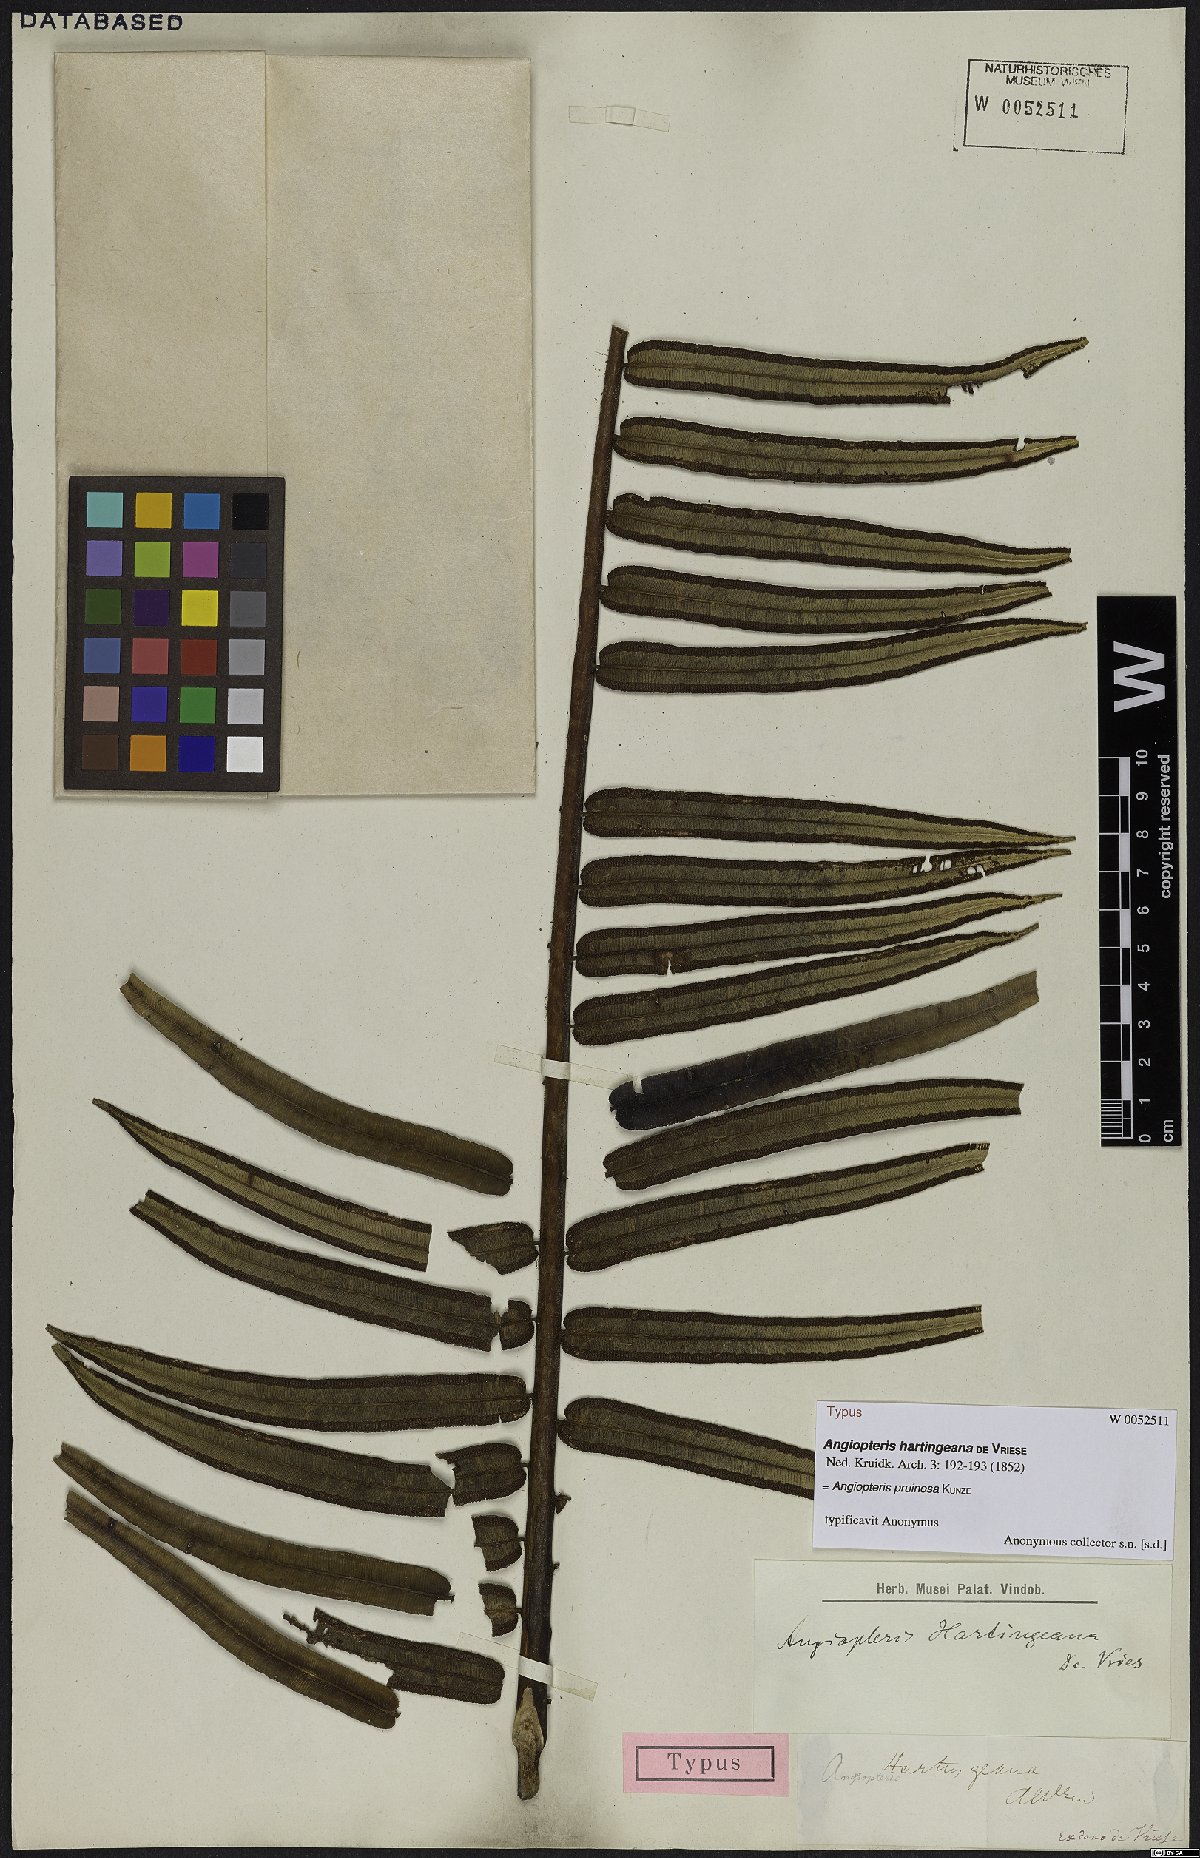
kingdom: Plantae
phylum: Tracheophyta
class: Polypodiopsida
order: Marattiales
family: Marattiaceae
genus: Angiopteris
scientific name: Angiopteris pruinosa
